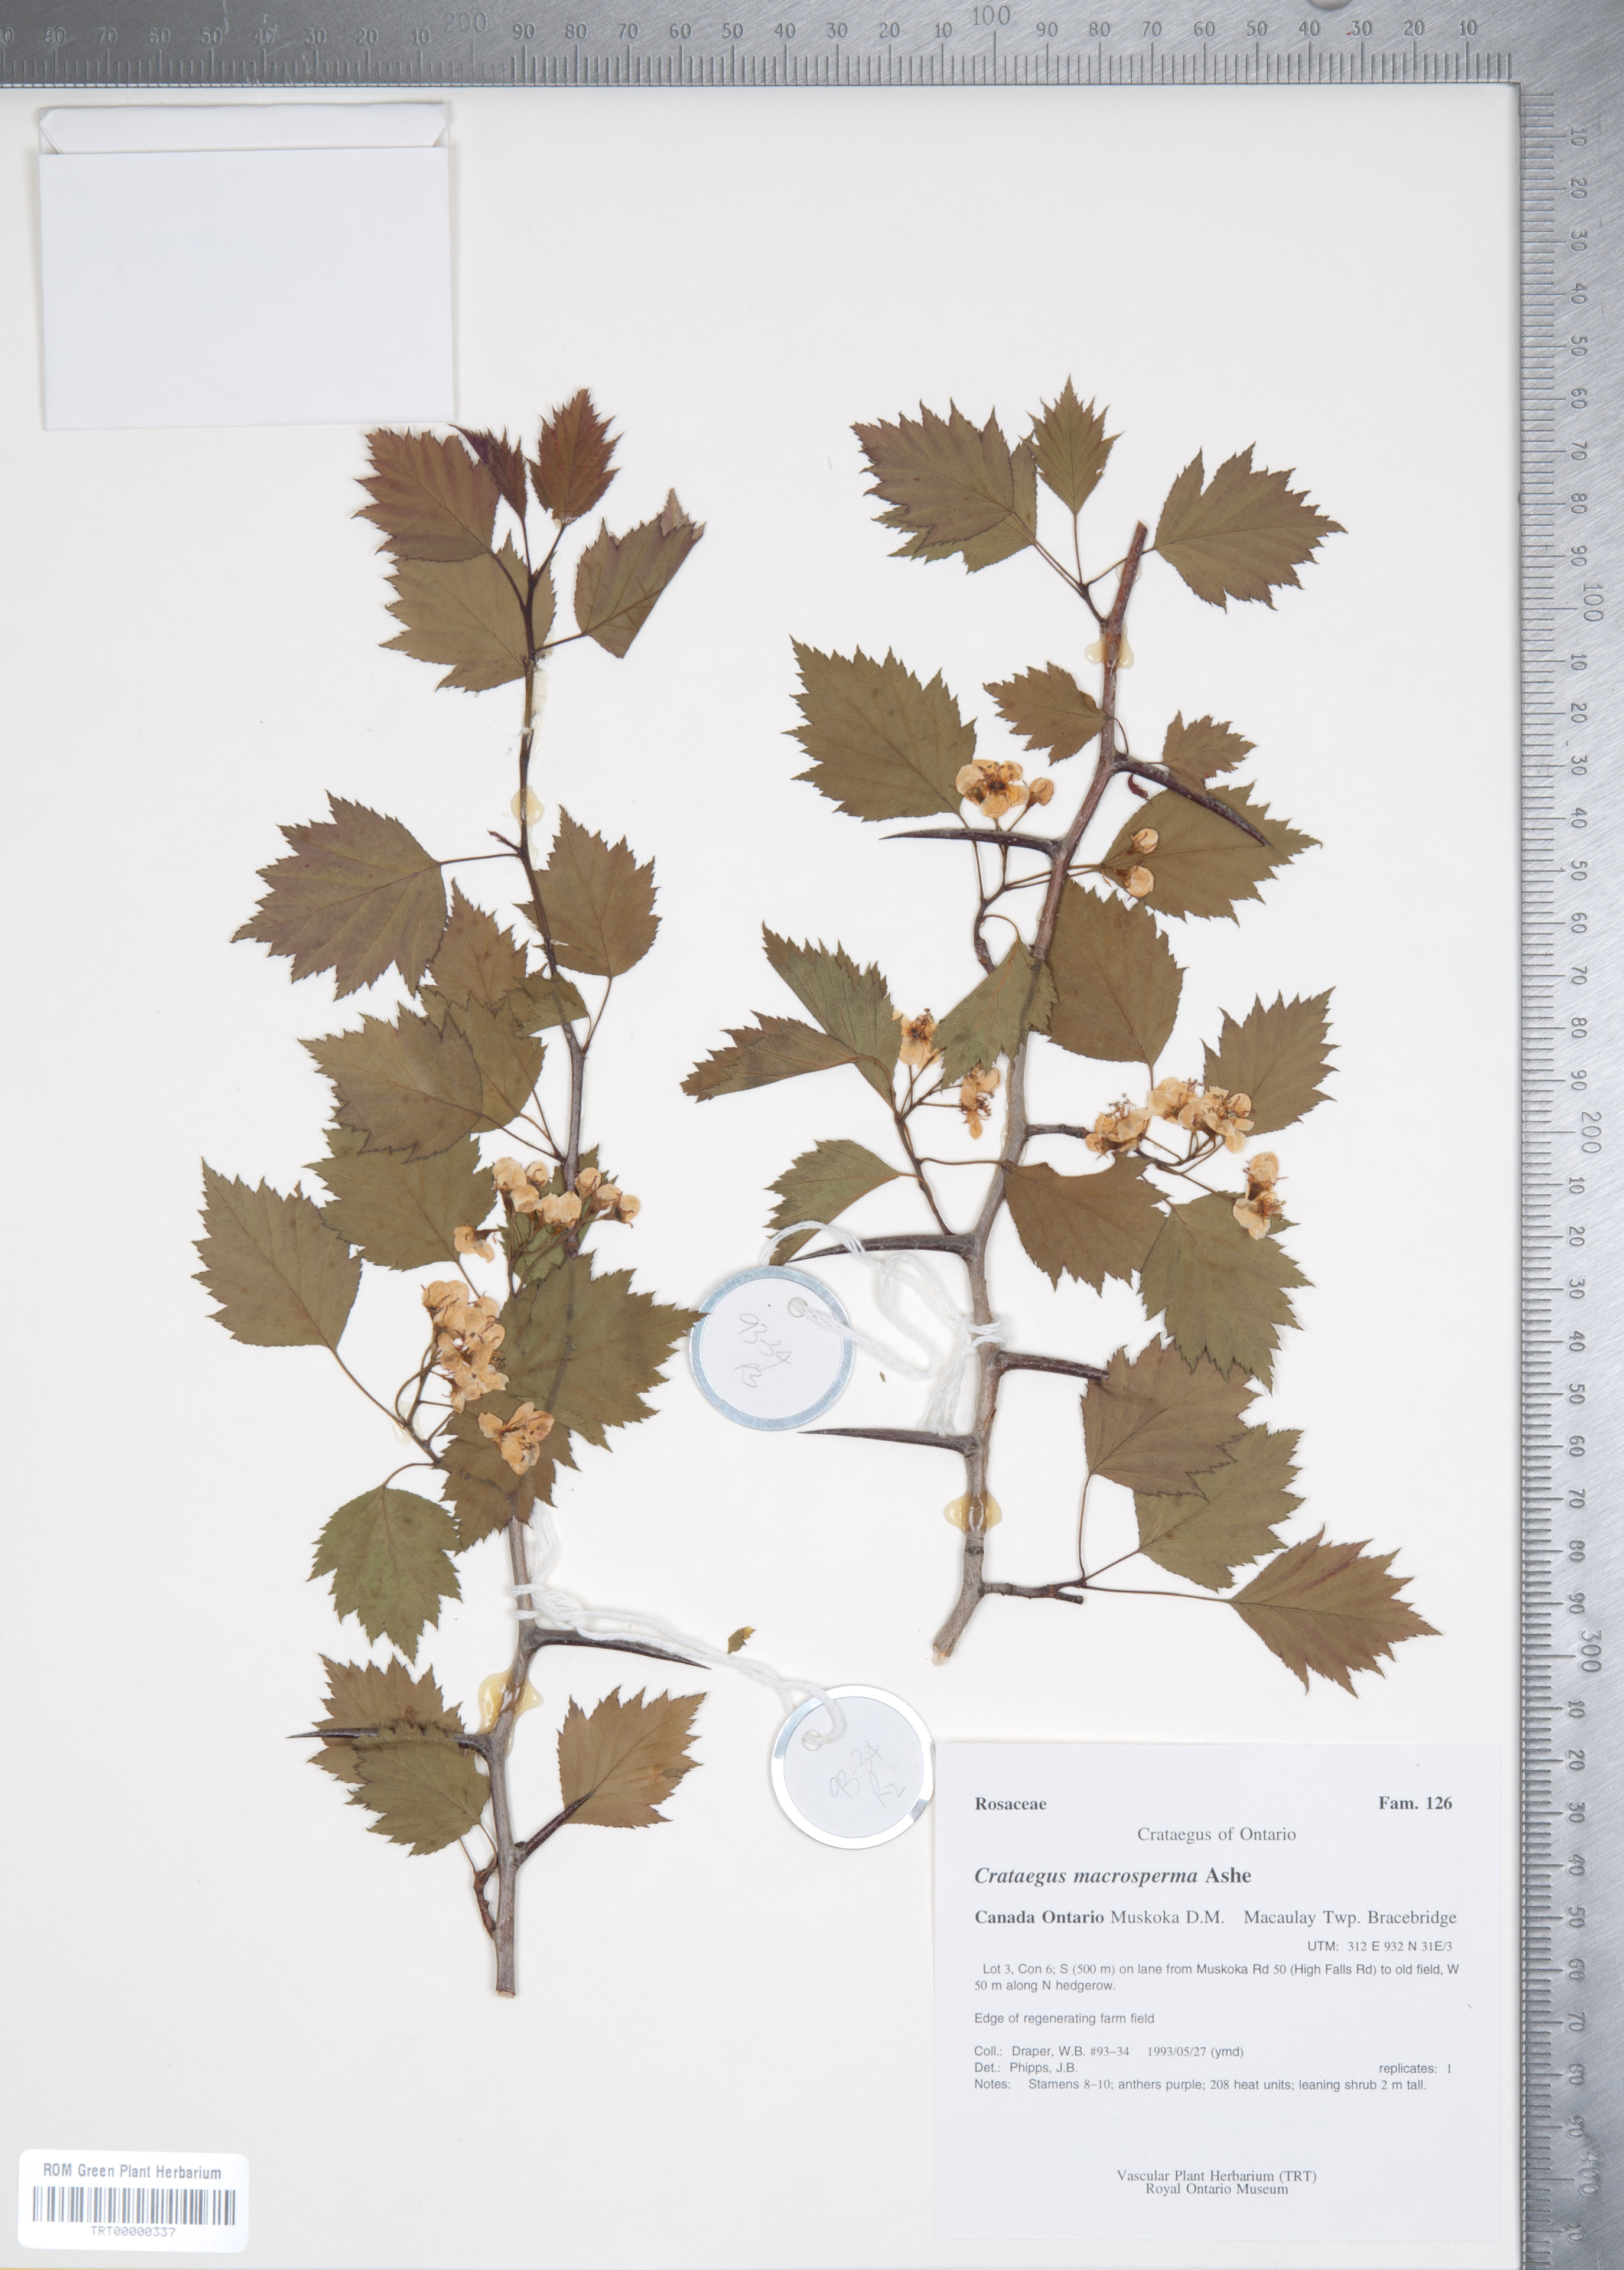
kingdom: Plantae
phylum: Tracheophyta
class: Magnoliopsida
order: Rosales
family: Rosaceae
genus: Crataegus
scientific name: Crataegus macrosperma
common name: Variable hawthorn
